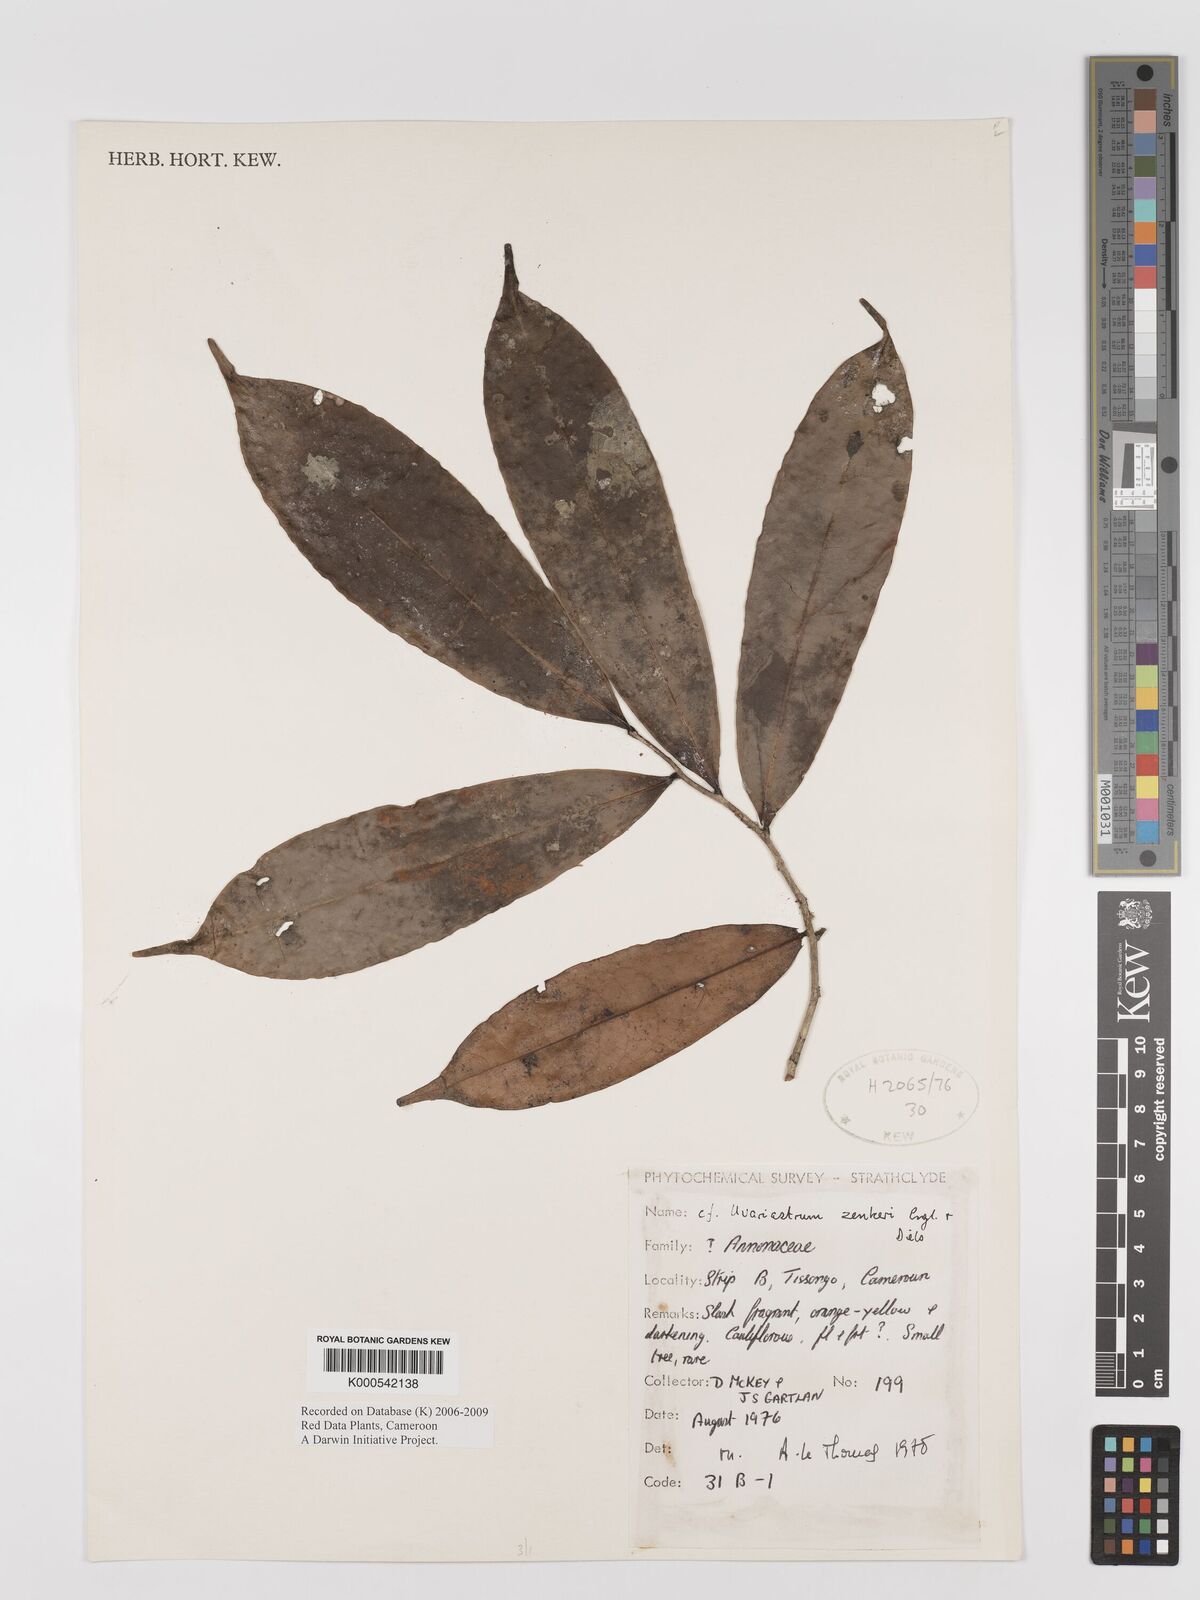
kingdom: Plantae
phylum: Tracheophyta
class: Magnoliopsida
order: Magnoliales
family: Annonaceae
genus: Uvariastrum
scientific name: Uvariastrum zenkeri
